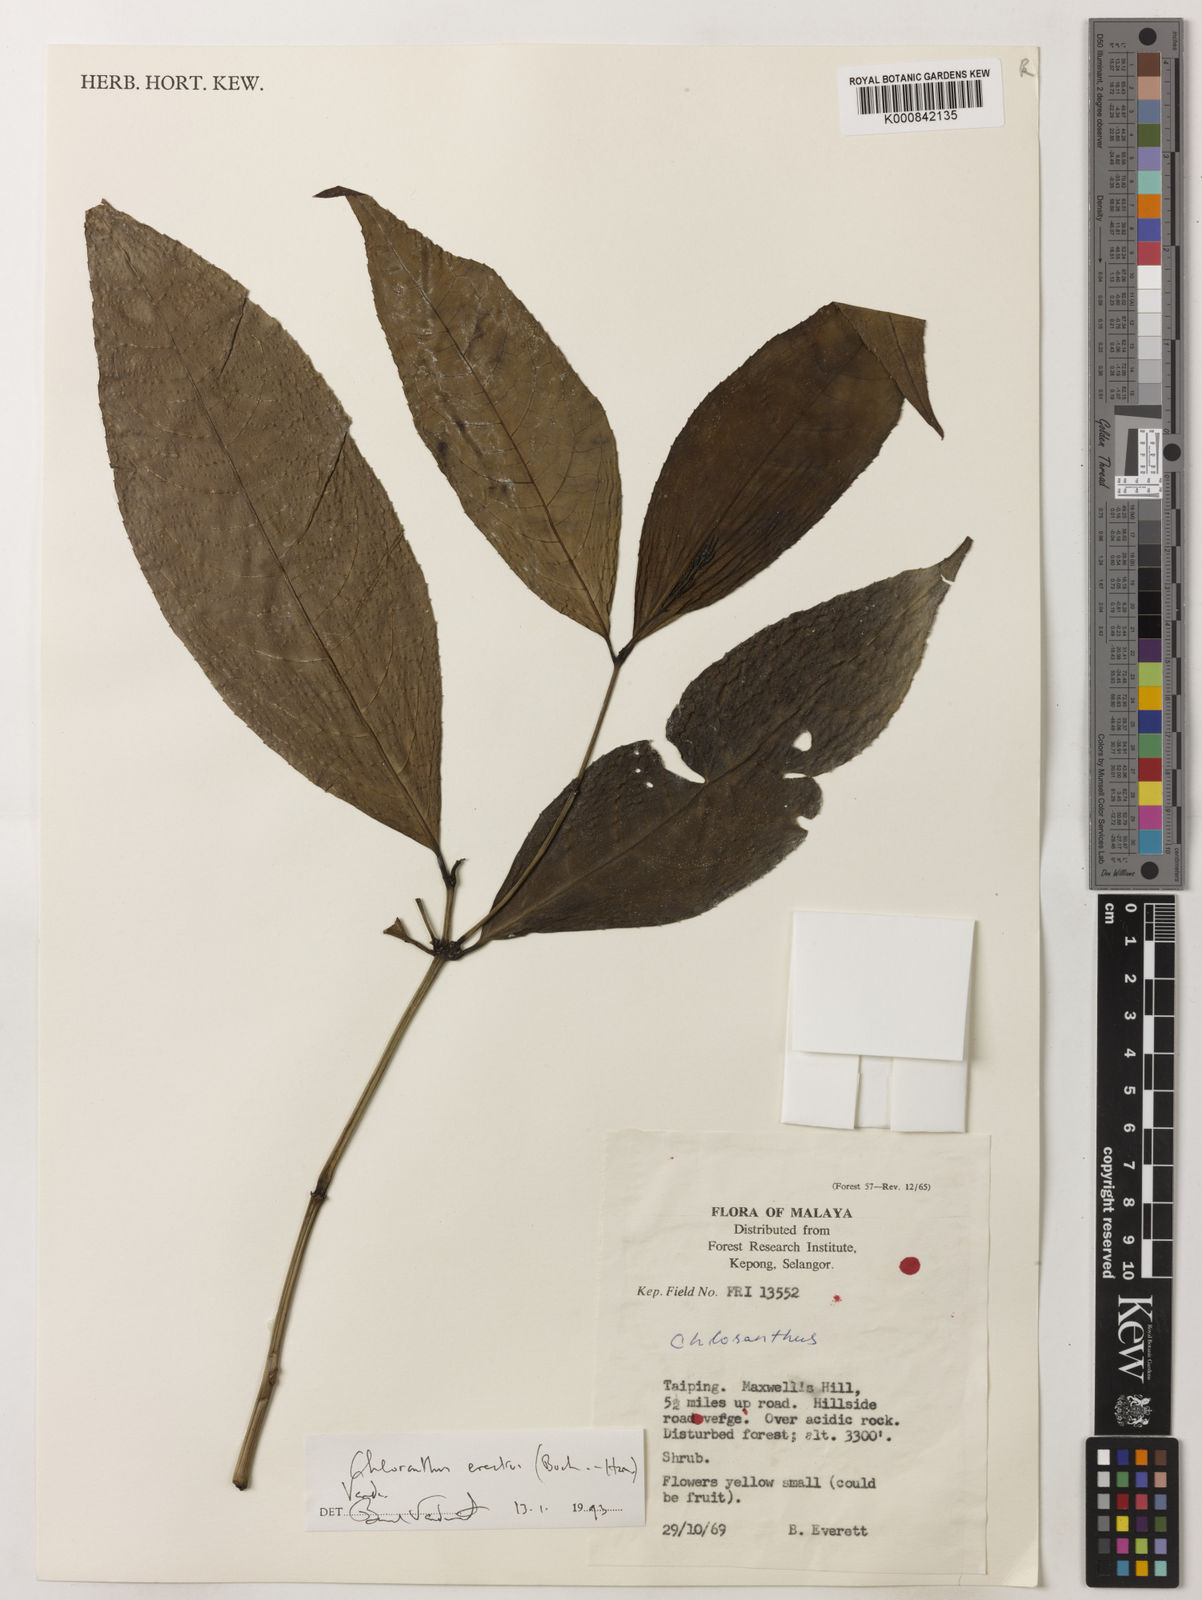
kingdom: Plantae
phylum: Tracheophyta
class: Magnoliopsida
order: Chloranthales
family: Chloranthaceae
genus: Chloranthus
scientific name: Chloranthus
